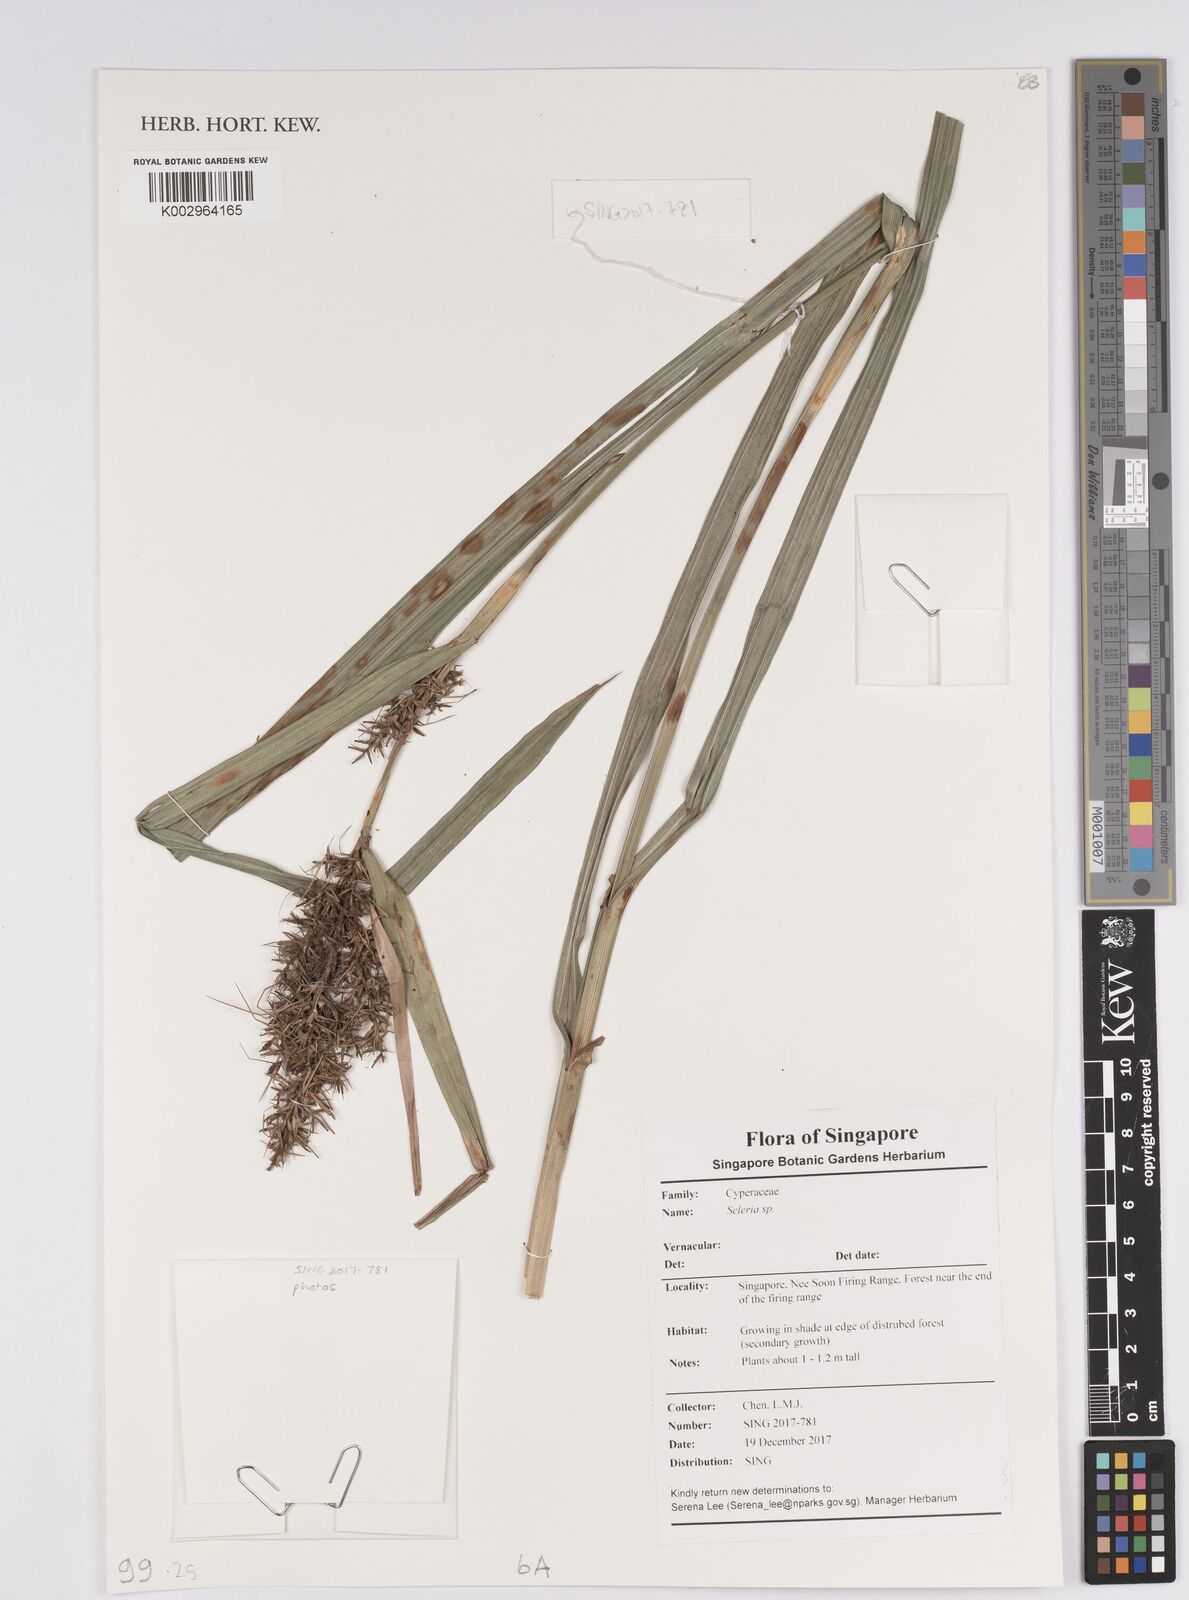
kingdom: Plantae
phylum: Tracheophyta
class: Liliopsida
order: Poales
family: Cyperaceae
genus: Scleria
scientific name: Scleria
